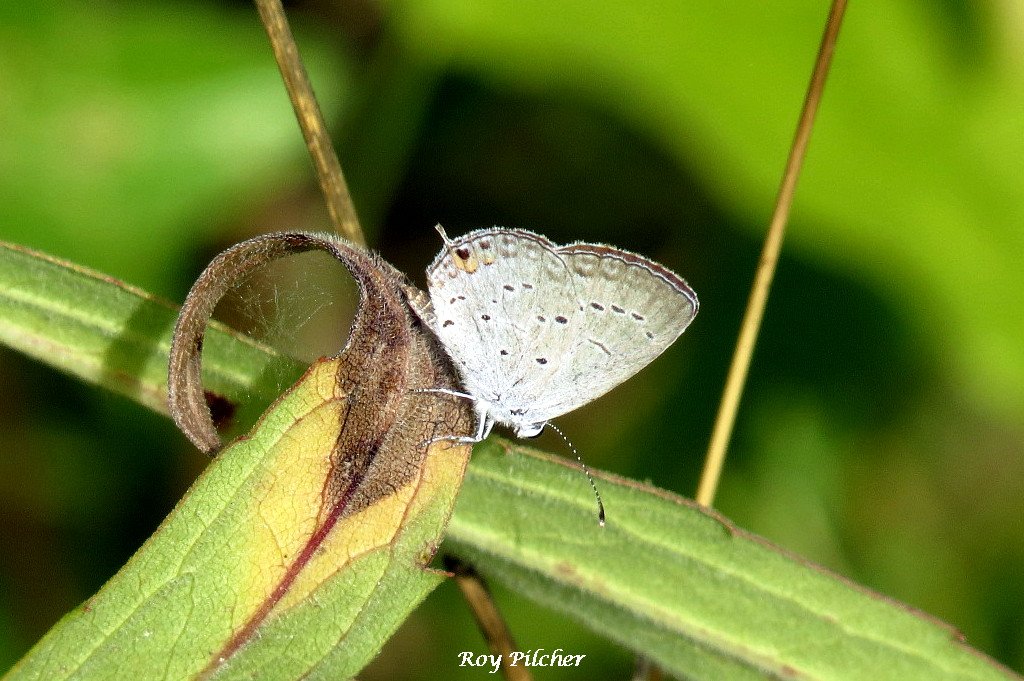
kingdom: Animalia
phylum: Arthropoda
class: Insecta
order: Lepidoptera
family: Lycaenidae
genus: Elkalyce
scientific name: Elkalyce comyntas
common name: Eastern Tailed-Blue
